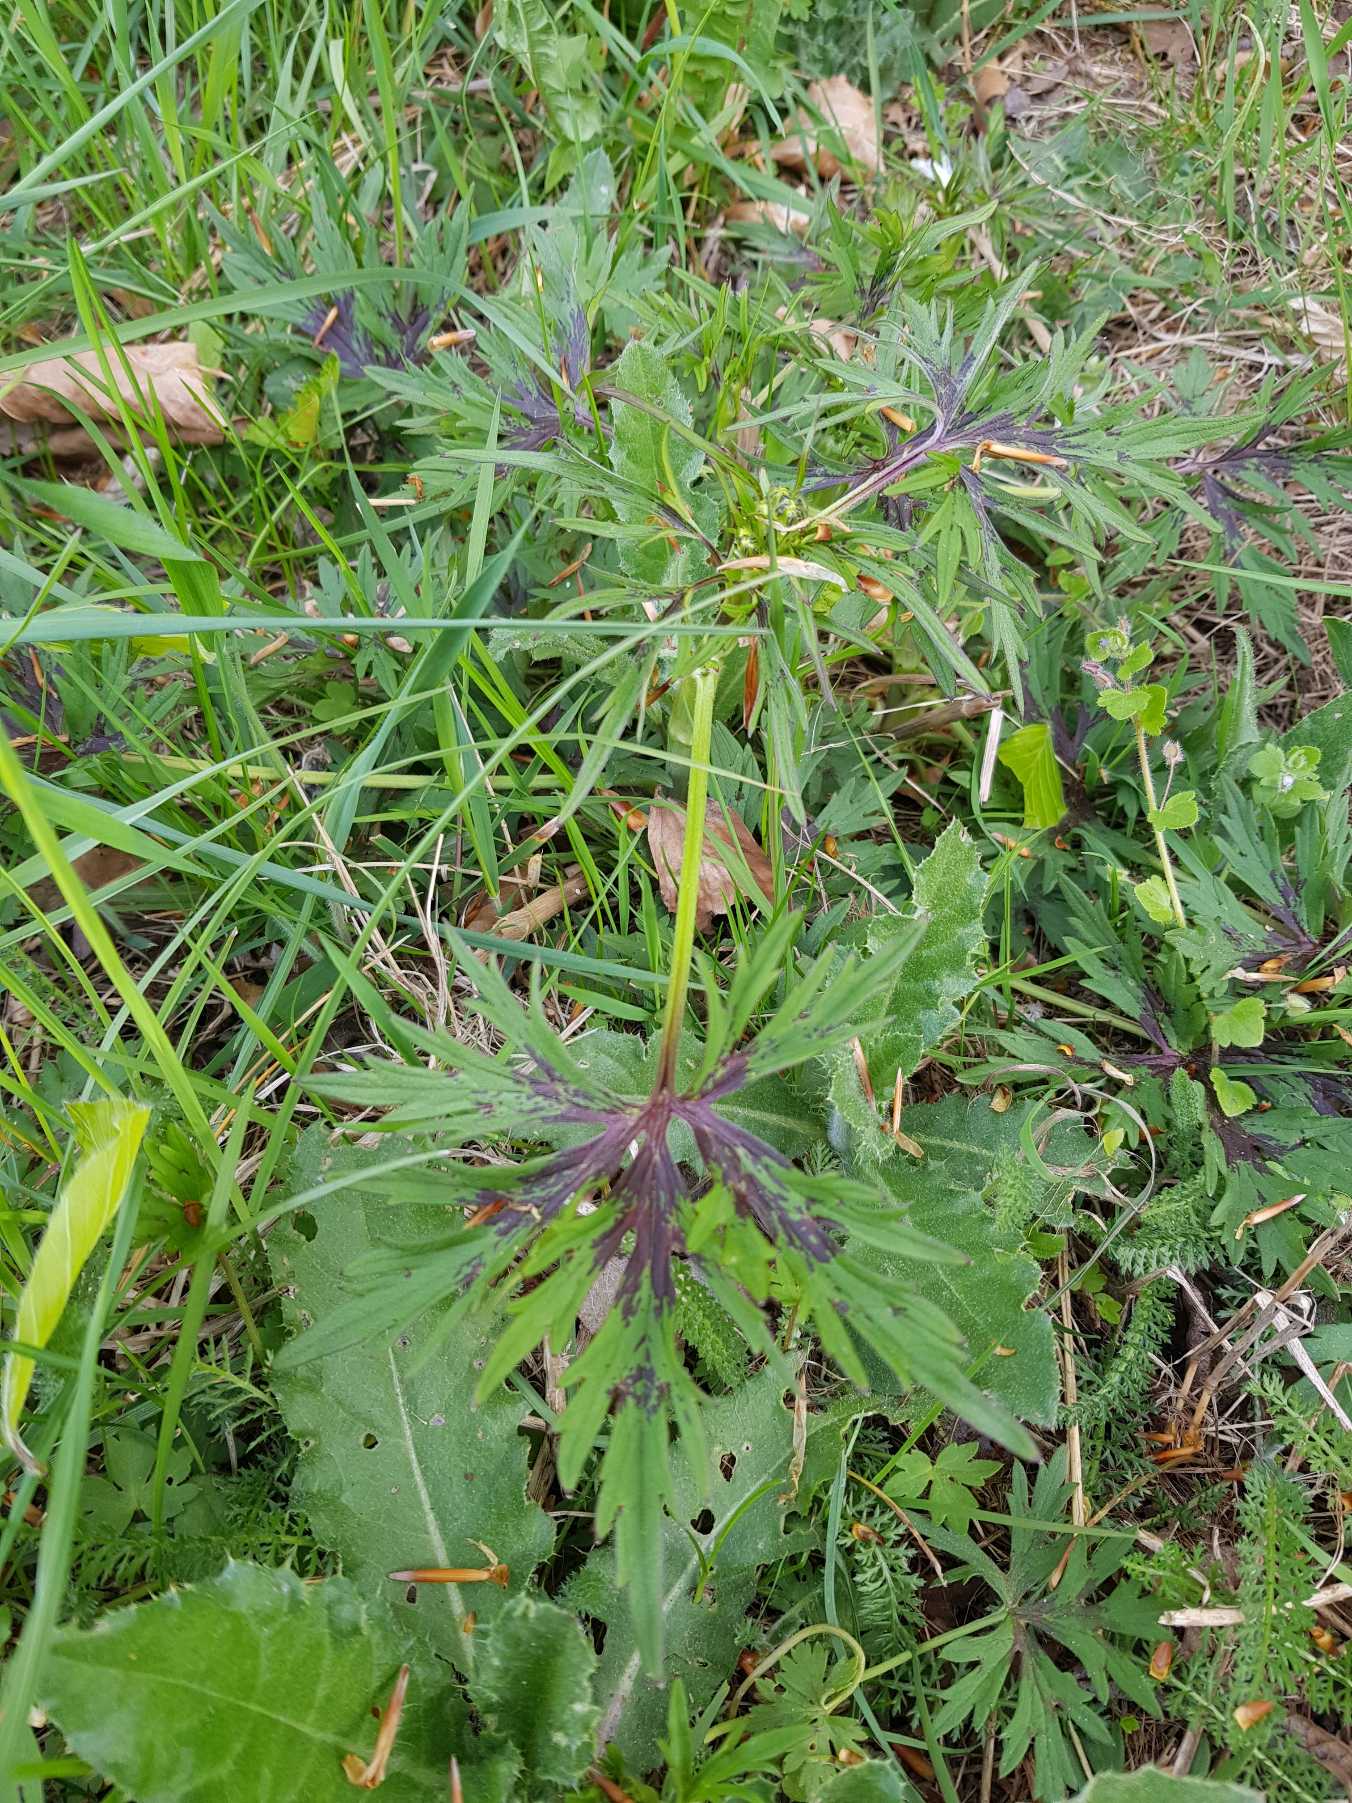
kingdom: Plantae
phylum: Tracheophyta
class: Magnoliopsida
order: Ranunculales
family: Ranunculaceae
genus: Ranunculus
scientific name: Ranunculus acris
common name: Bidende ranunkel
